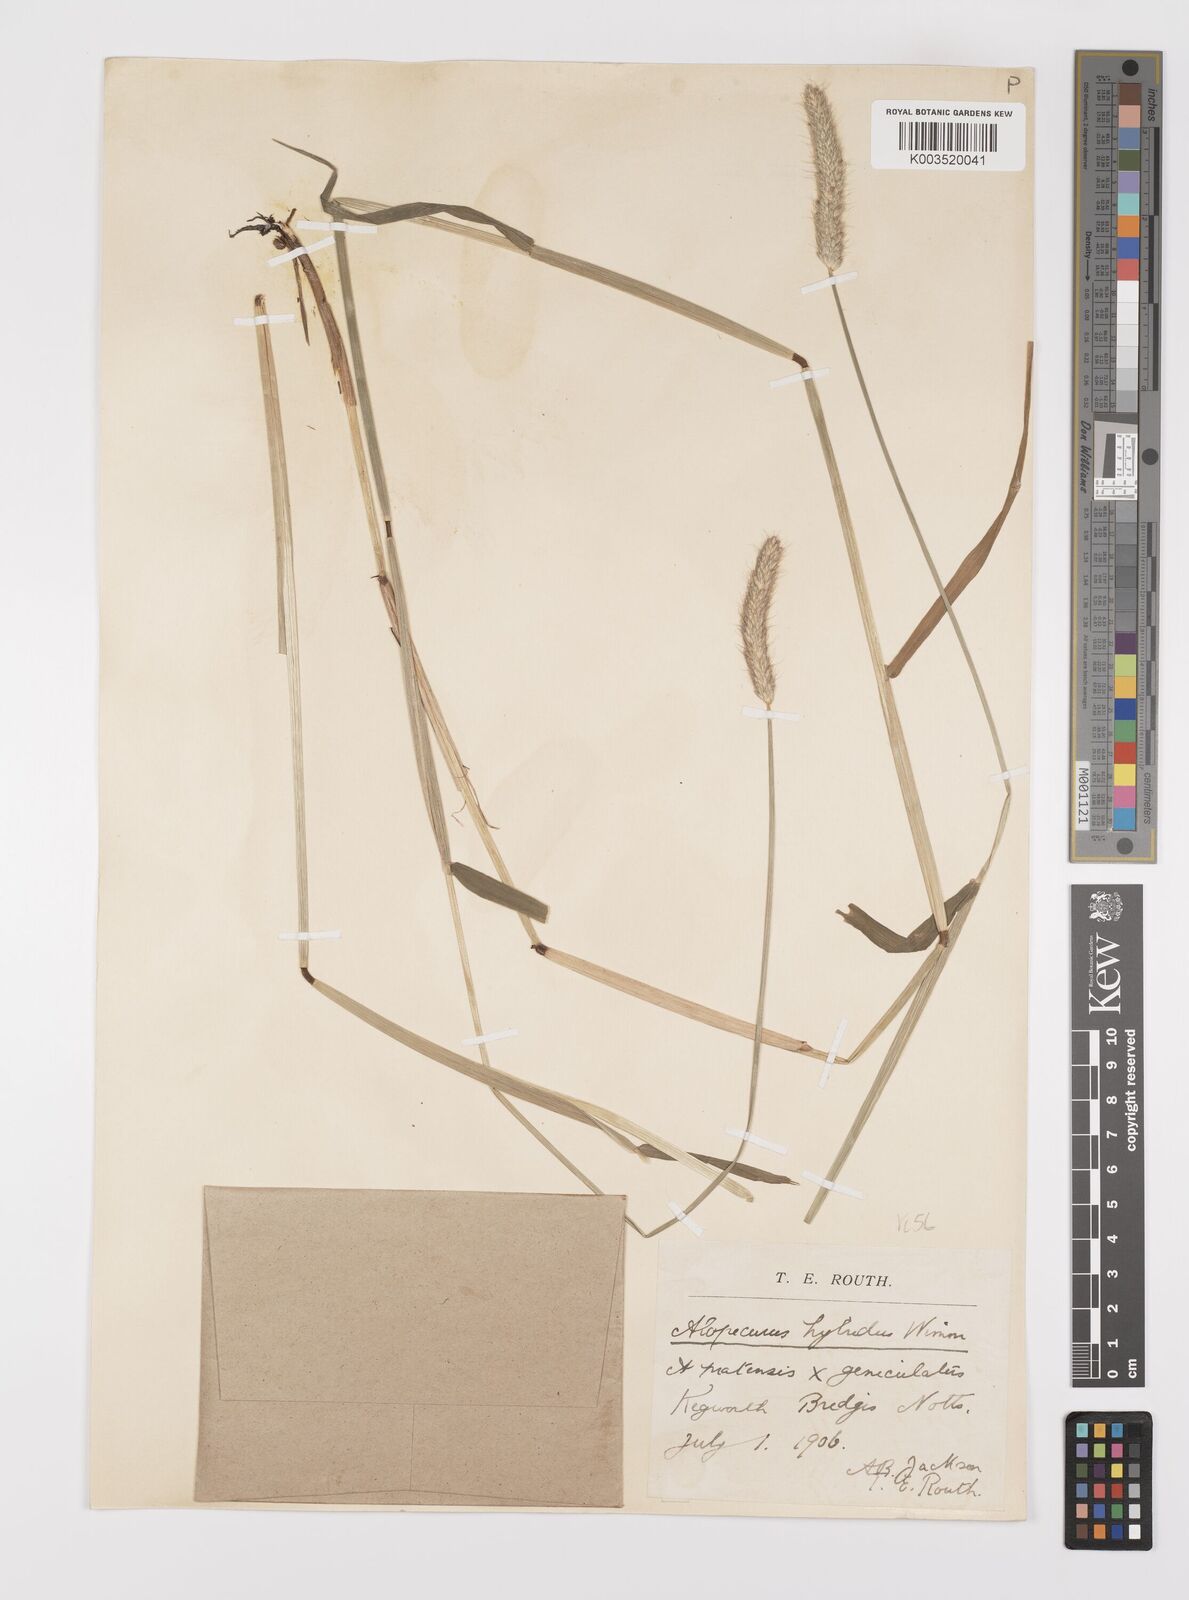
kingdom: Plantae
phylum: Tracheophyta
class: Liliopsida
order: Poales
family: Poaceae
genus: Alopecurus
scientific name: Alopecurus brachystylus
